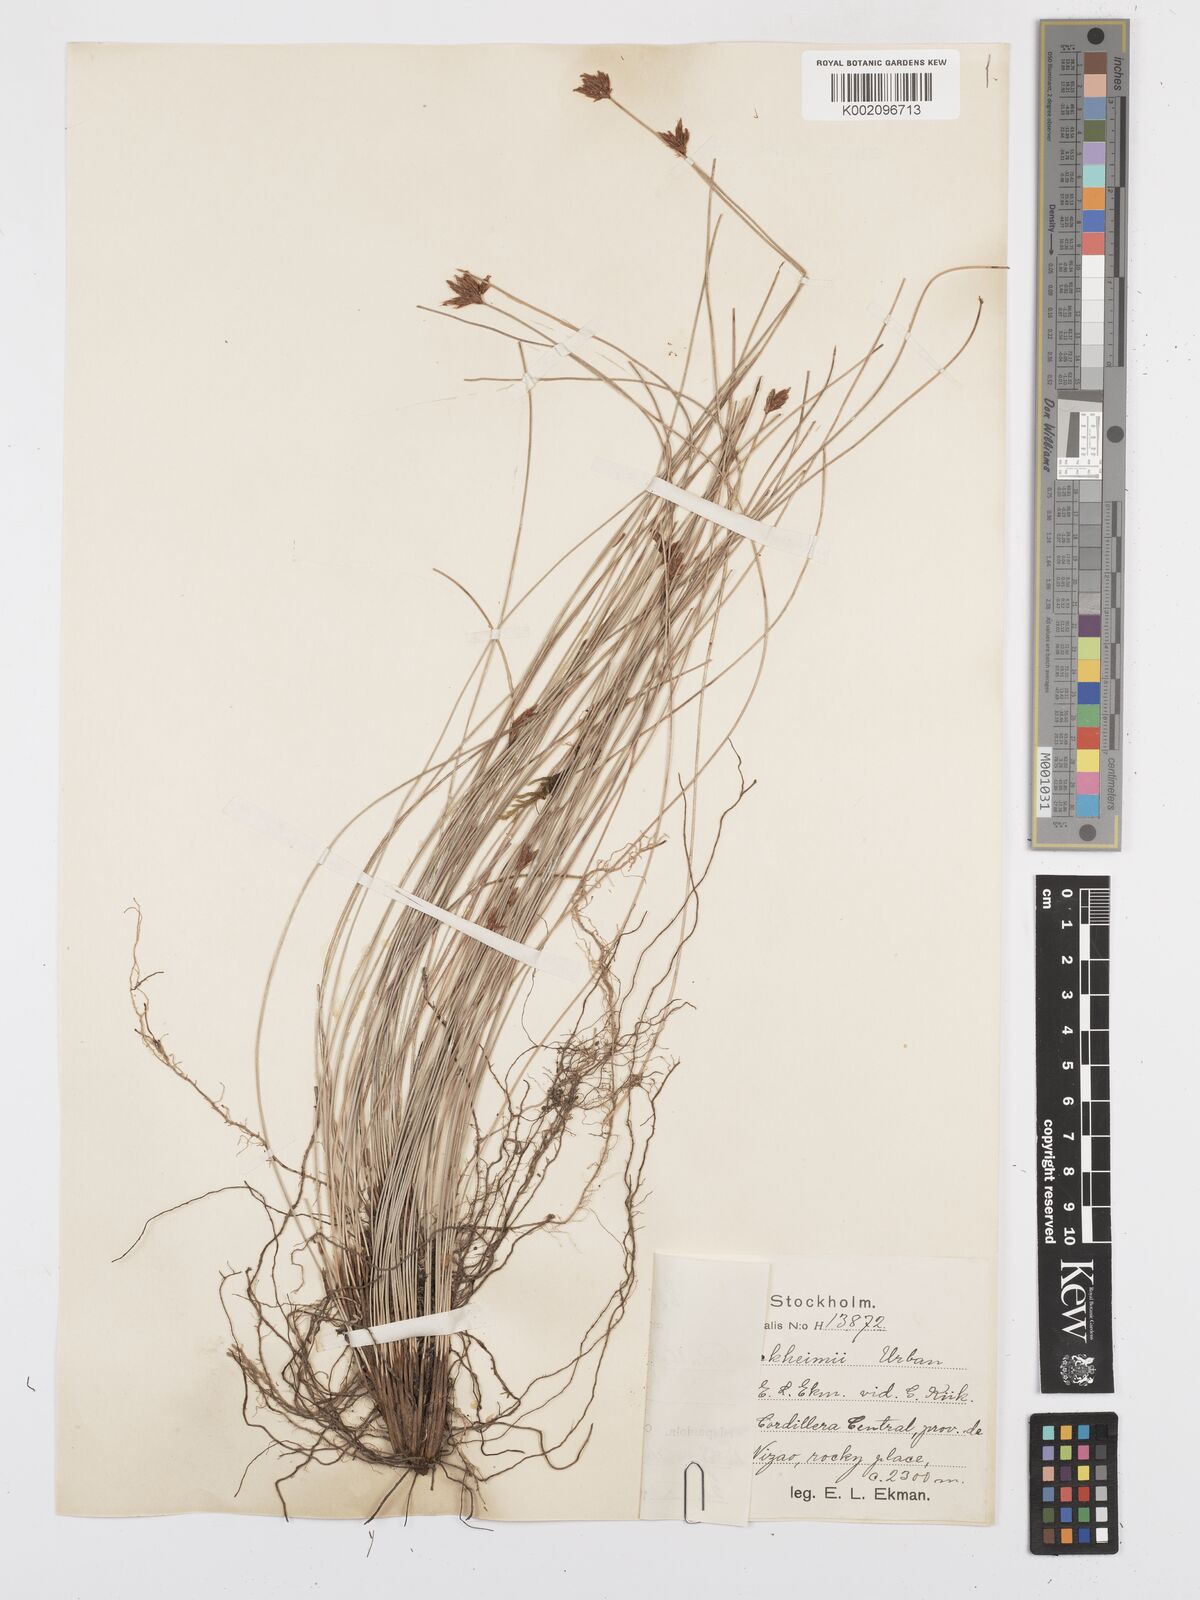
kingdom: Plantae
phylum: Tracheophyta
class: Liliopsida
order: Poales
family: Cyperaceae
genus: Bulbostylis
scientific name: Bulbostylis tuerckheimii
